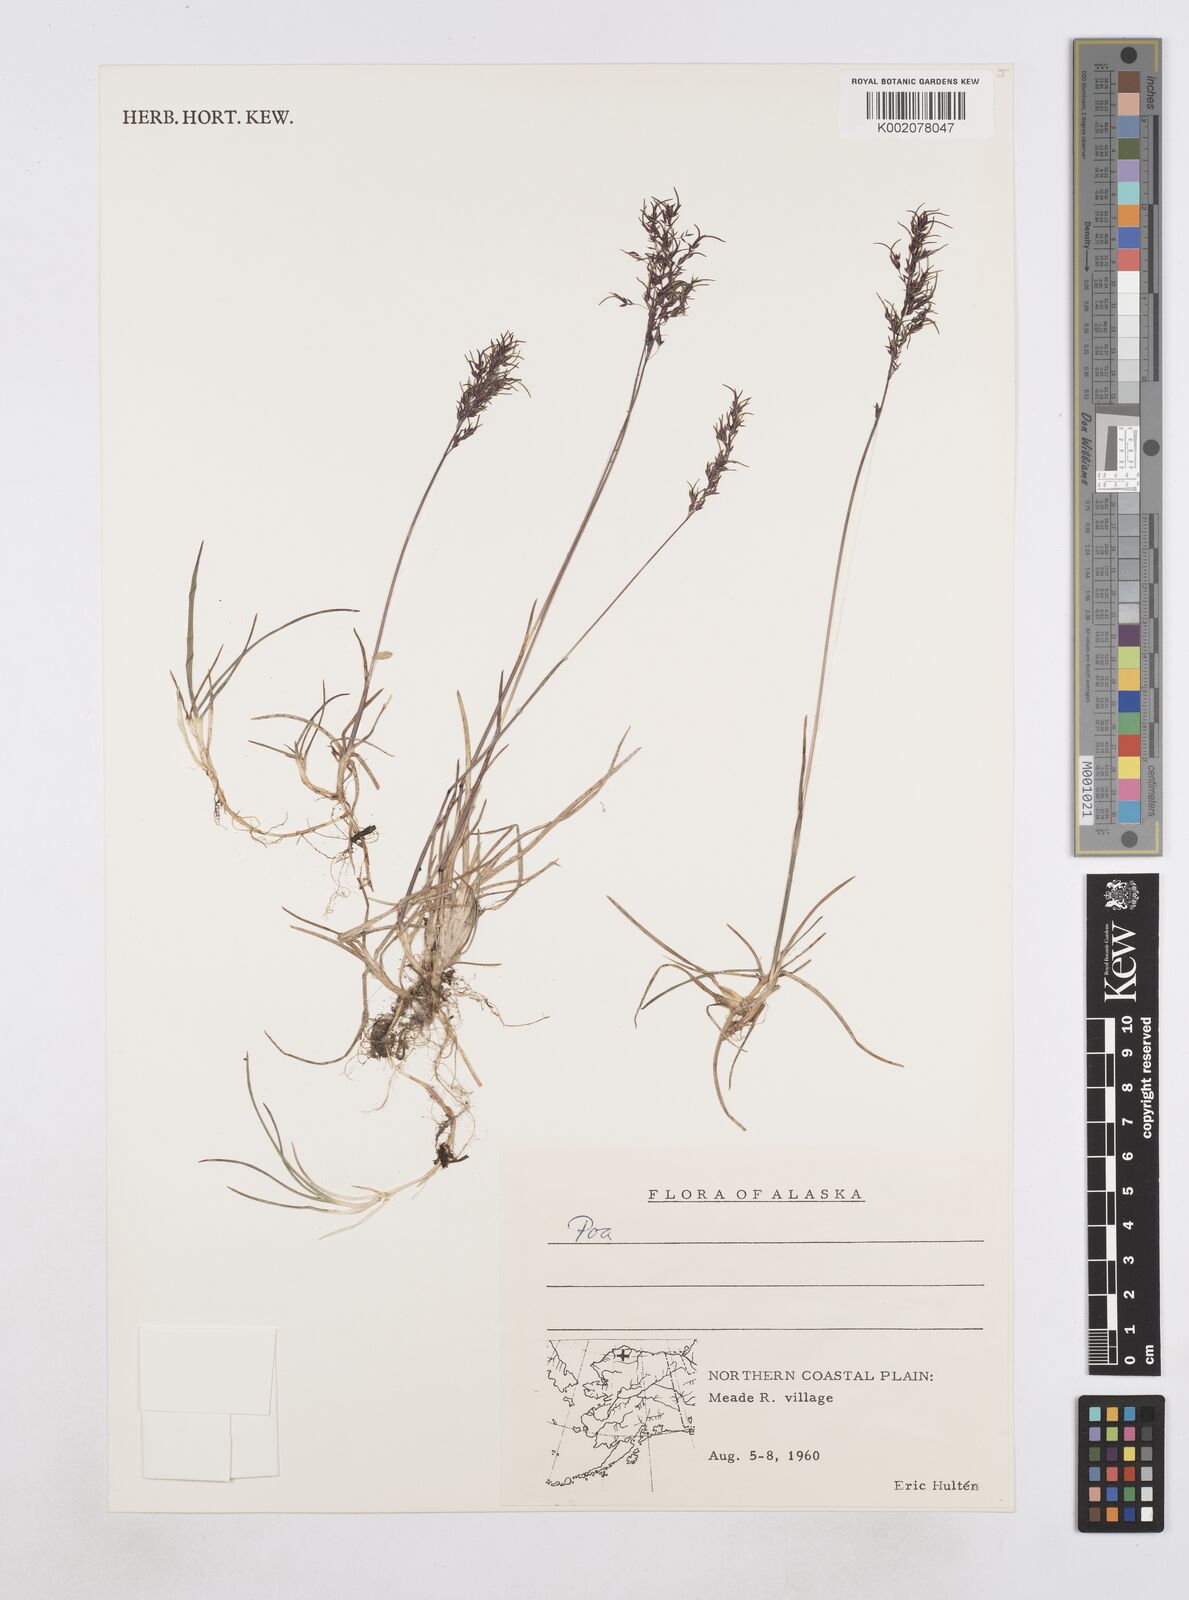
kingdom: Plantae
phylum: Tracheophyta
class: Liliopsida
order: Poales
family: Poaceae
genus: Poa
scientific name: Poa
